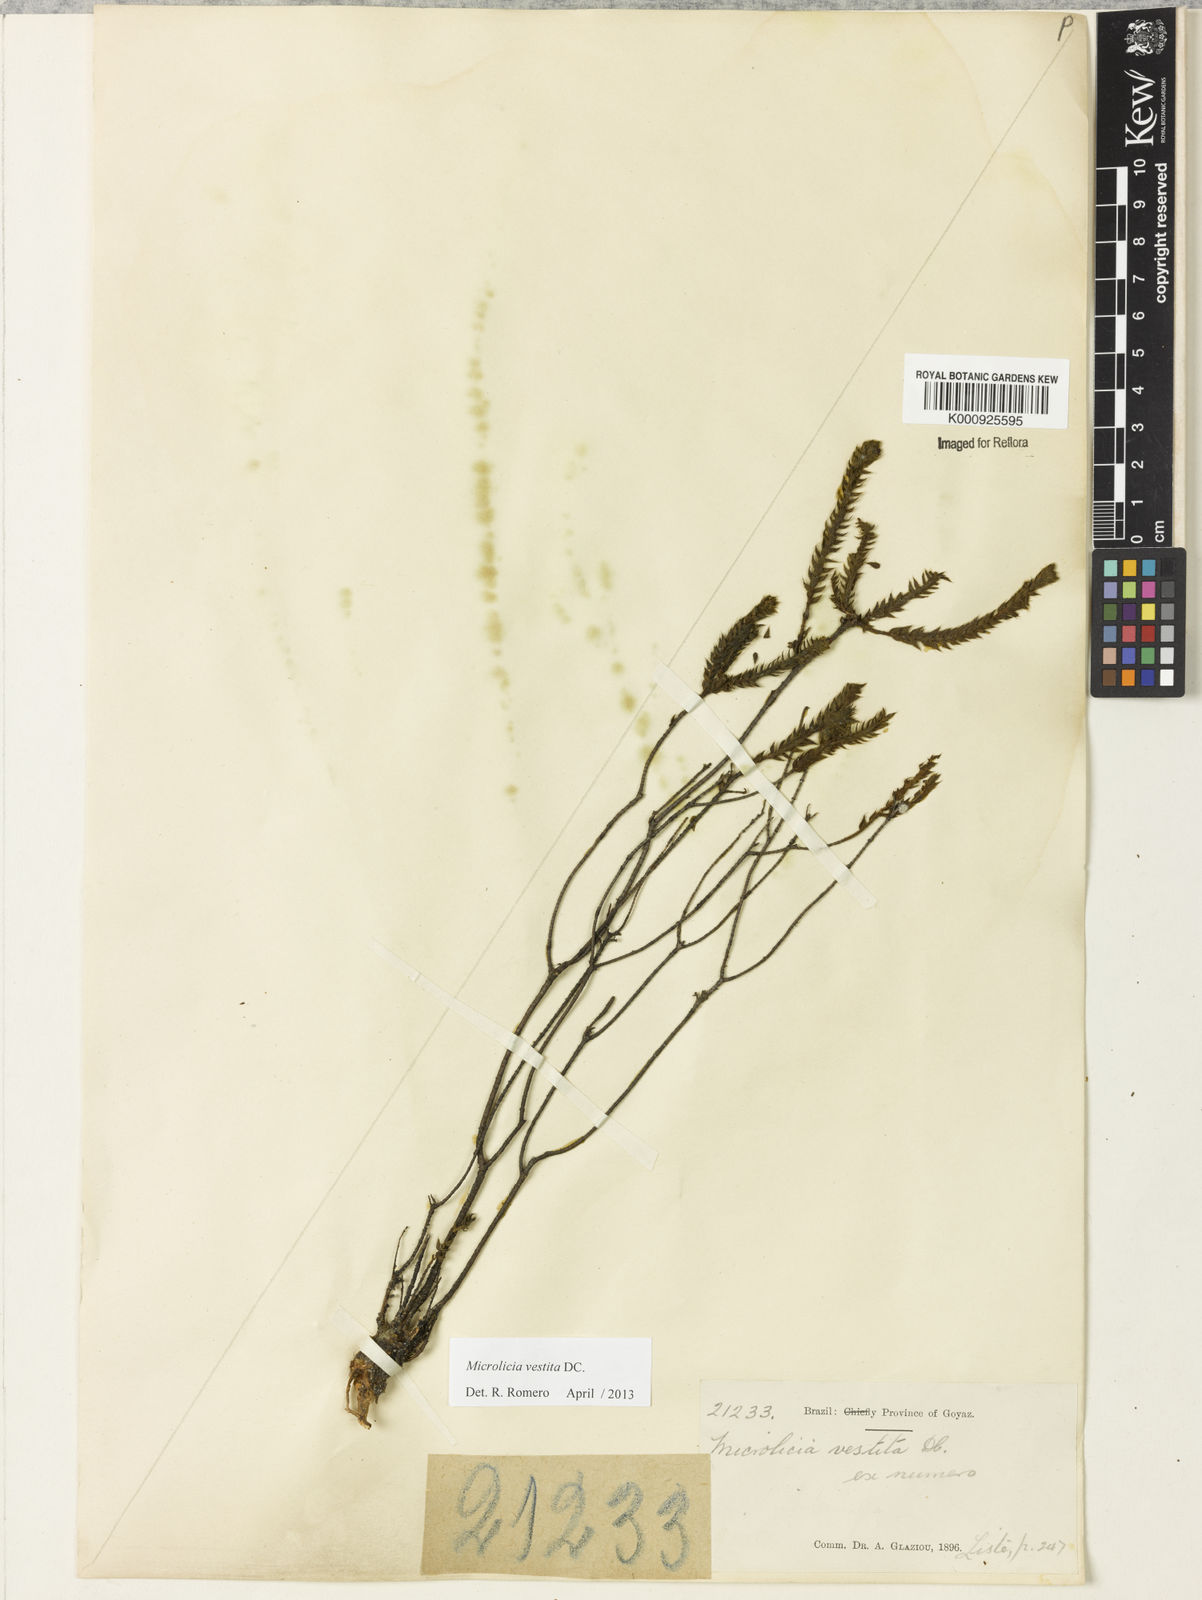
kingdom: Plantae
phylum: Tracheophyta
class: Magnoliopsida
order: Myrtales
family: Melastomataceae
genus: Microlicia
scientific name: Microlicia vestita
